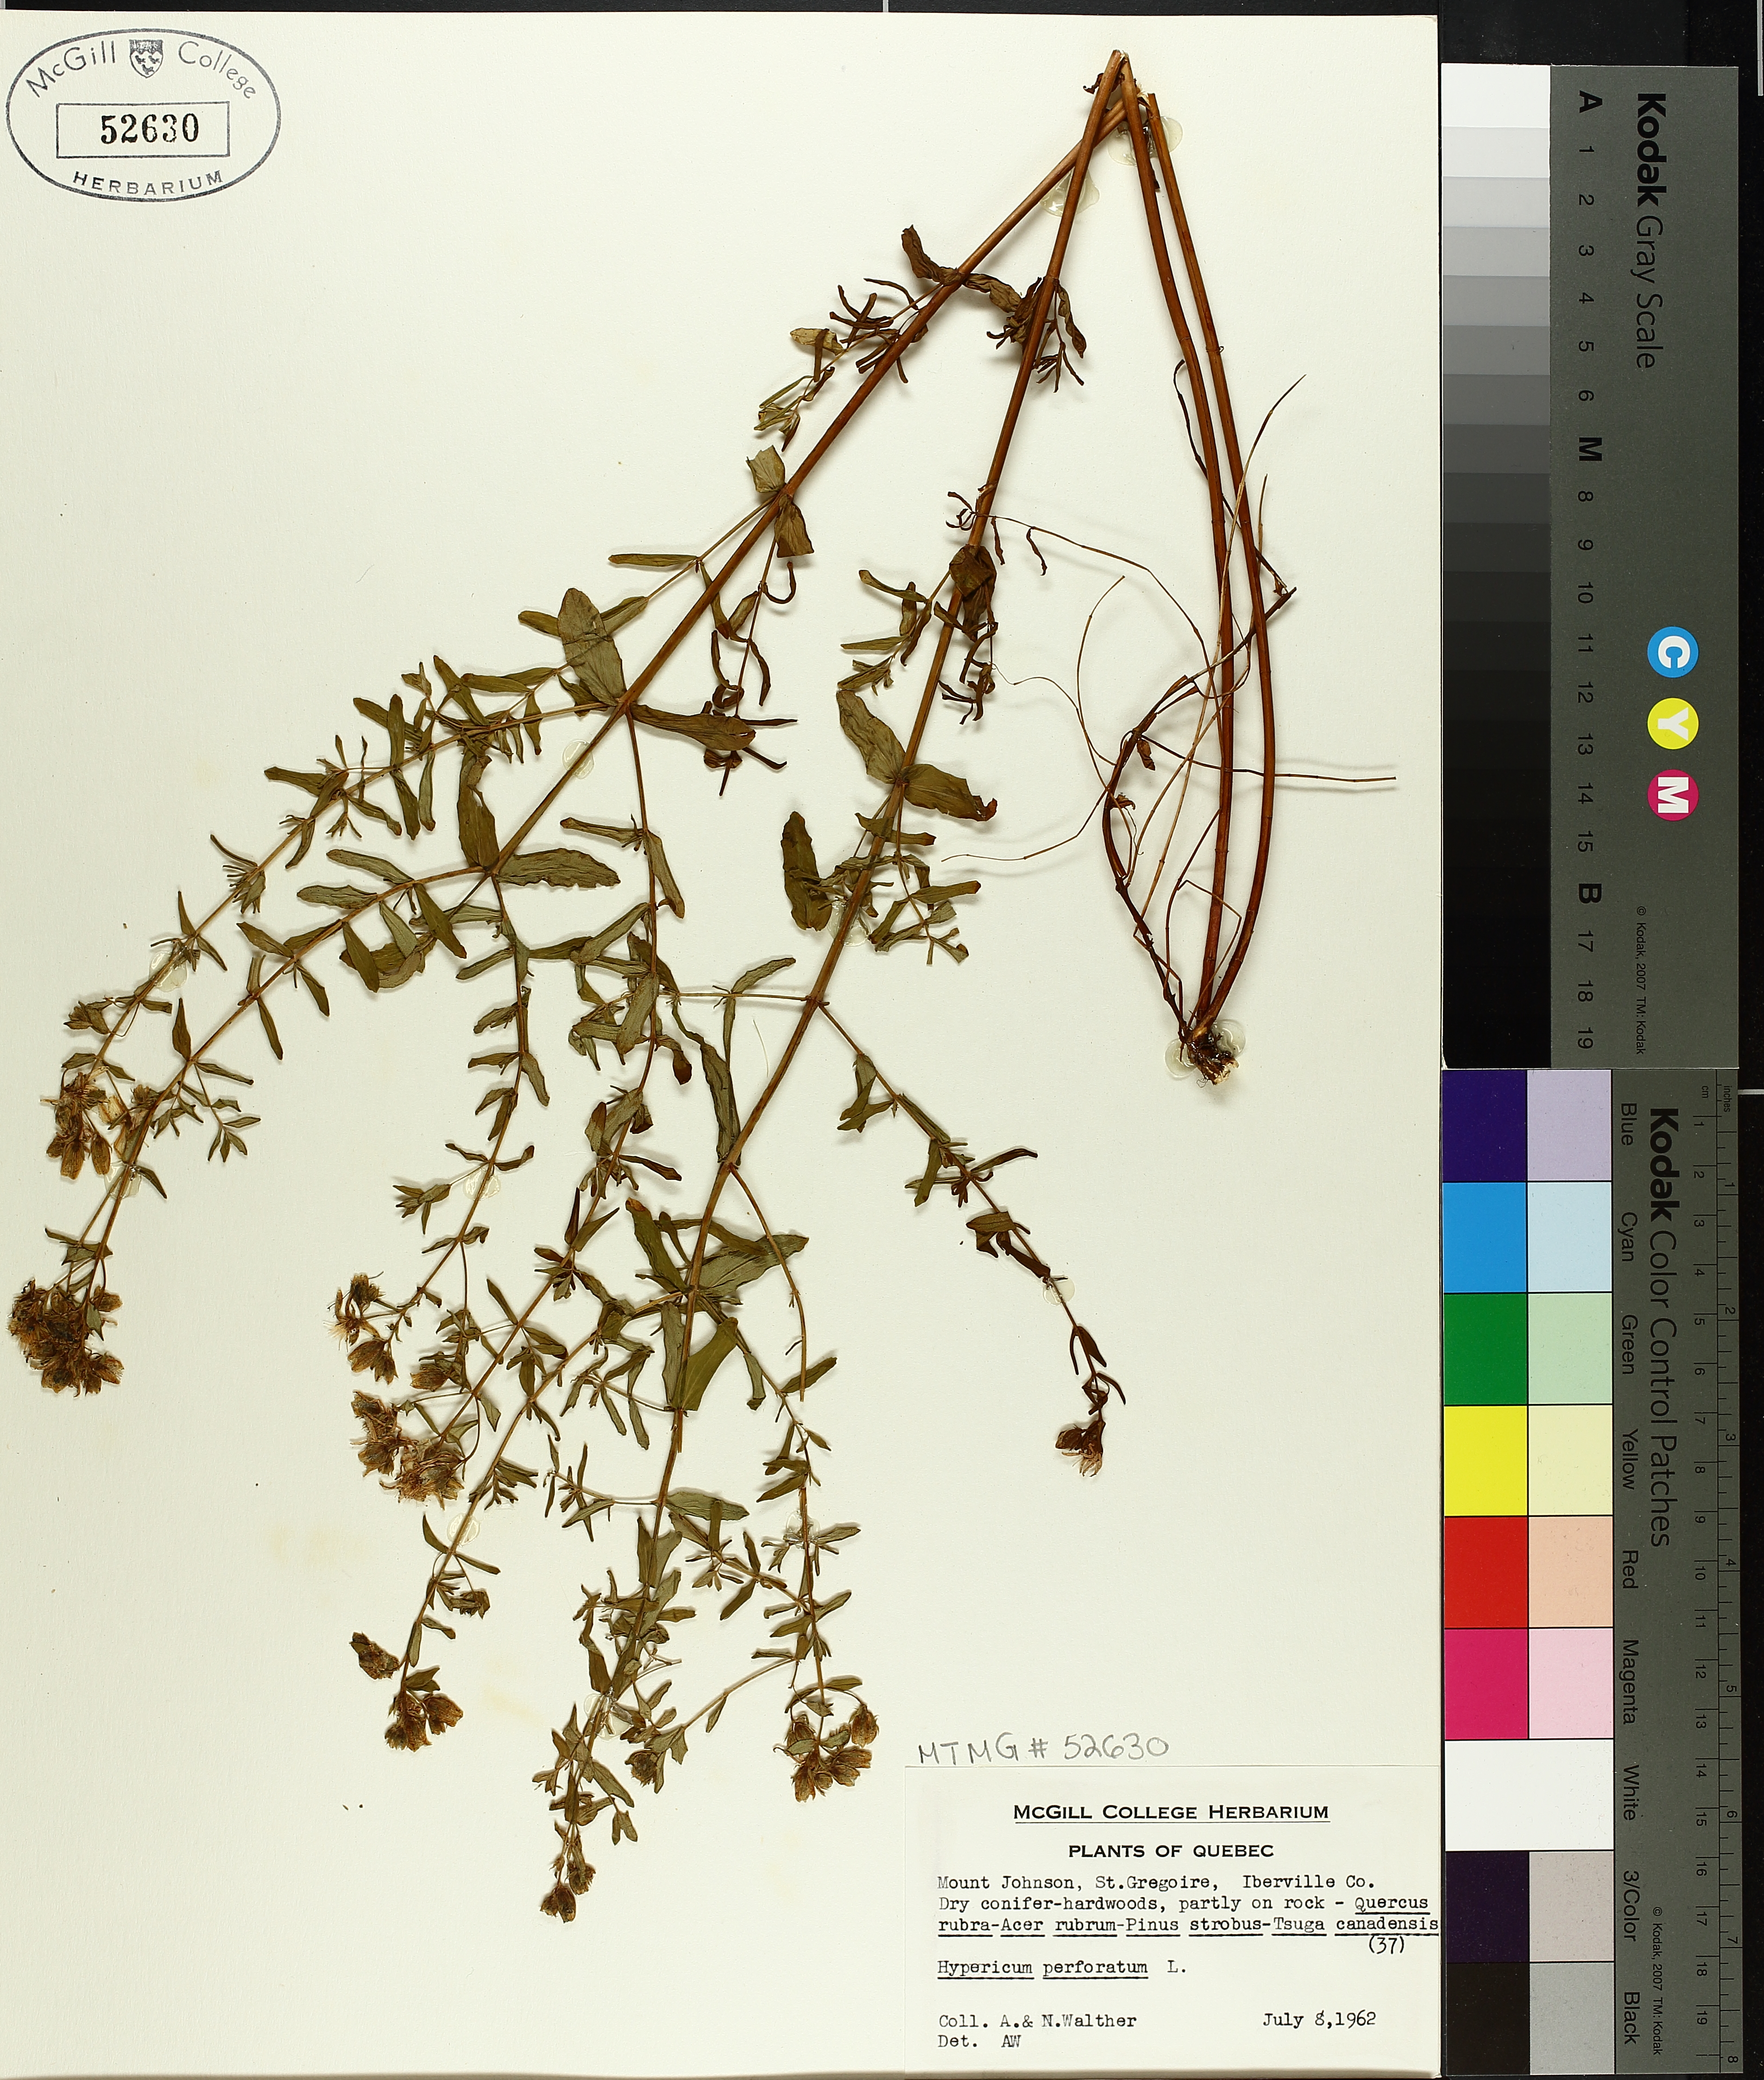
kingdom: Plantae
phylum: Tracheophyta
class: Magnoliopsida
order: Malpighiales
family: Hypericaceae
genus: Hypericum
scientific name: Hypericum perforatum
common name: Common st. johnswort
